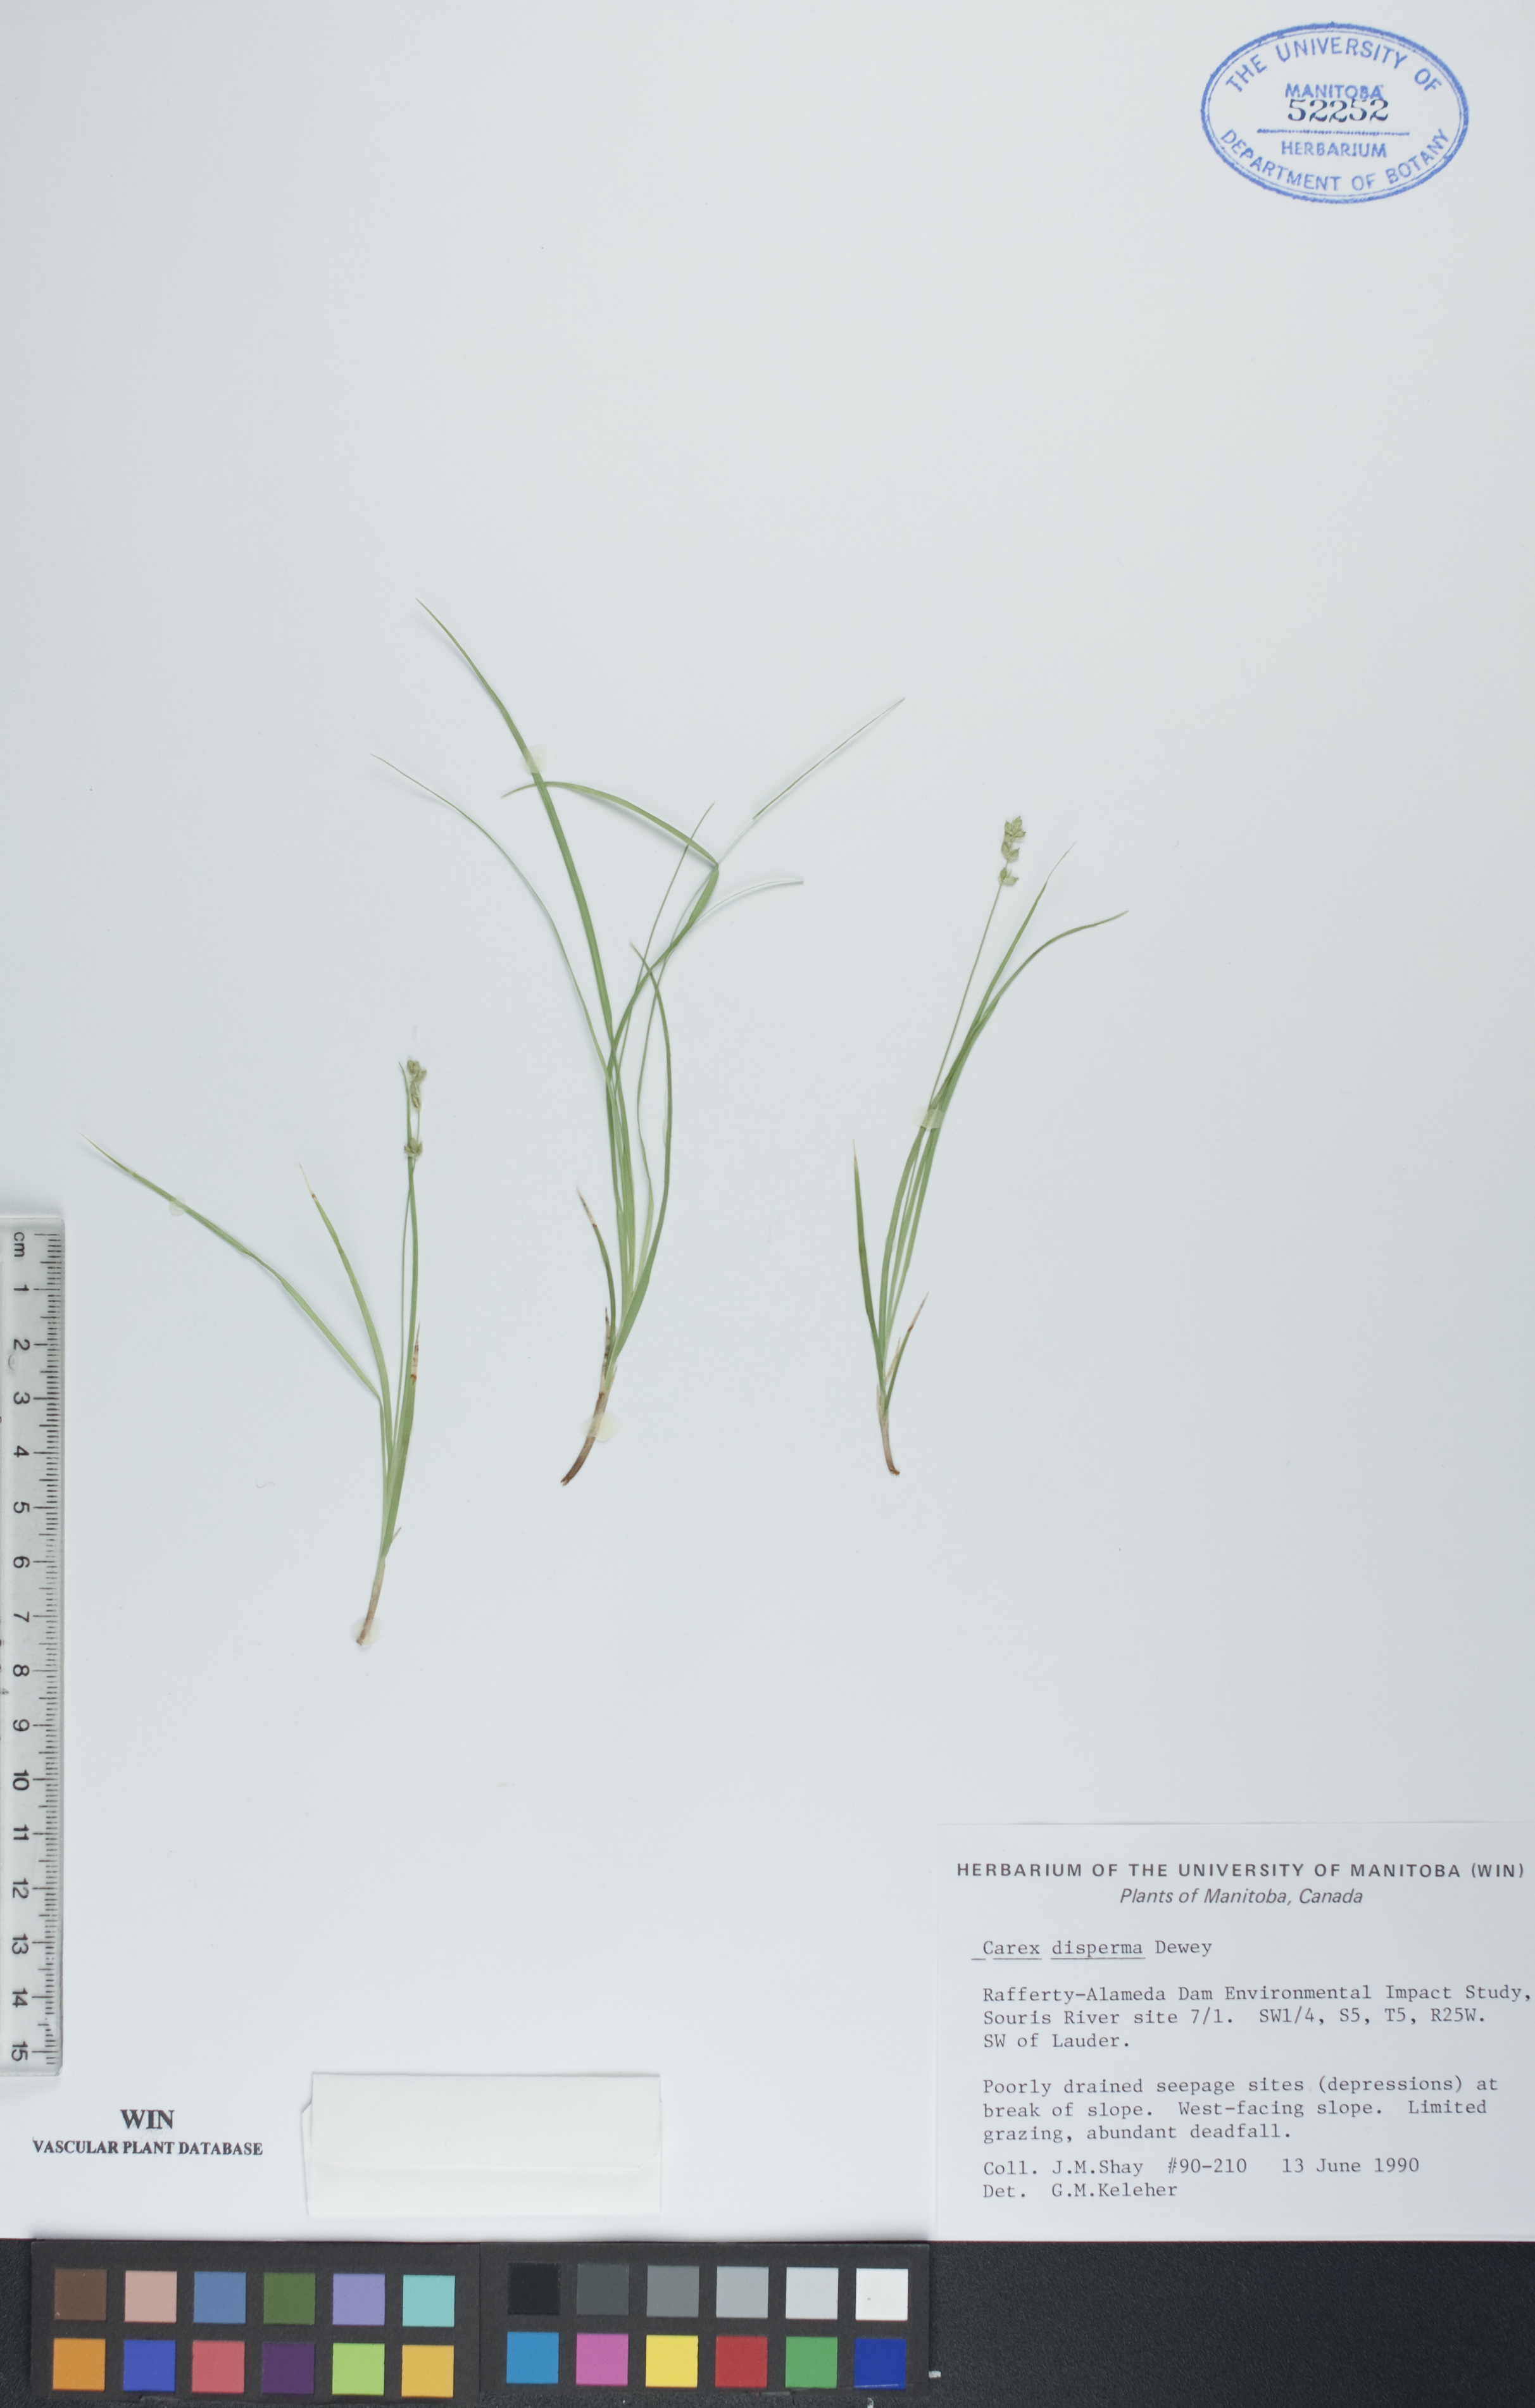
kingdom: Plantae
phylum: Tracheophyta
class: Liliopsida
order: Poales
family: Cyperaceae
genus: Carex
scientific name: Carex disperma
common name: Short-leaved sedge
